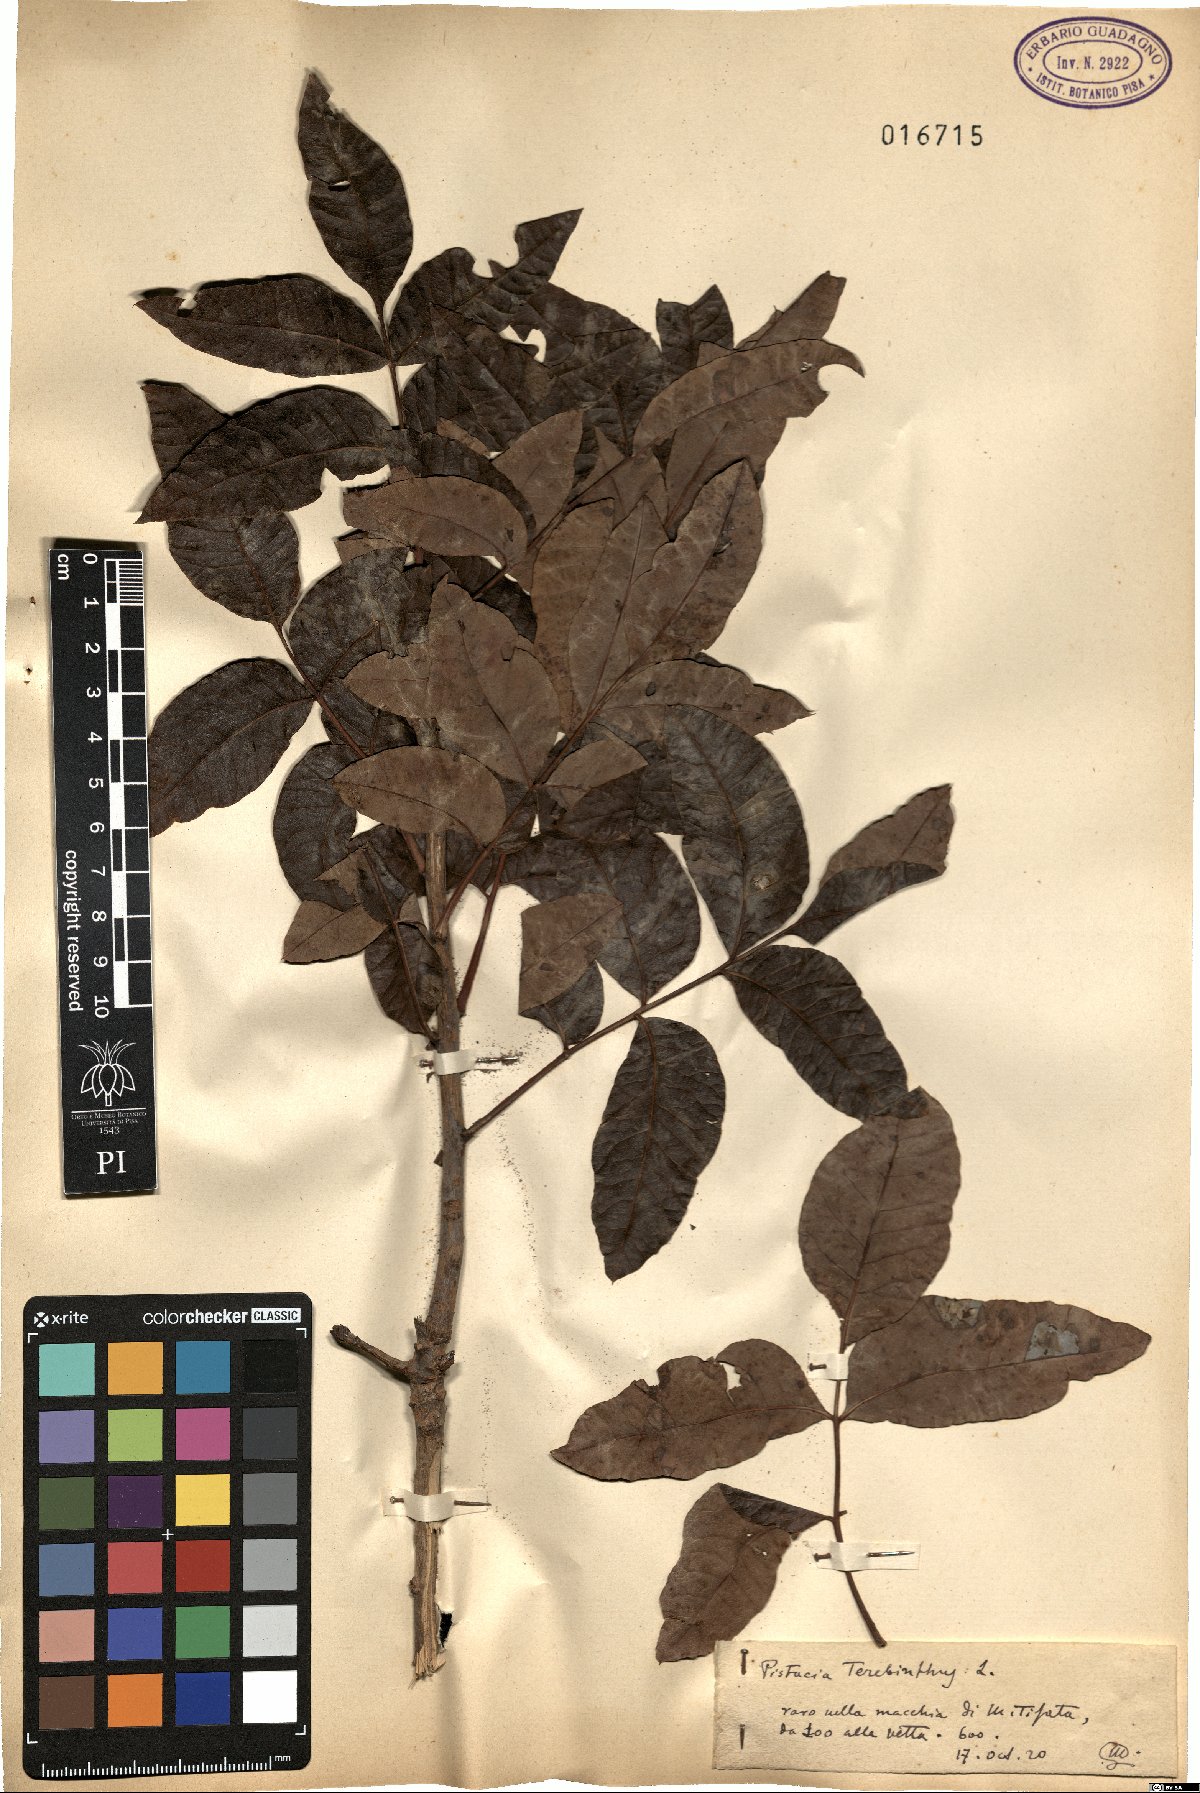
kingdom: Plantae
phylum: Tracheophyta
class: Magnoliopsida
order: Sapindales
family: Anacardiaceae
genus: Pistacia
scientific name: Pistacia terebinthus
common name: Terebinth
